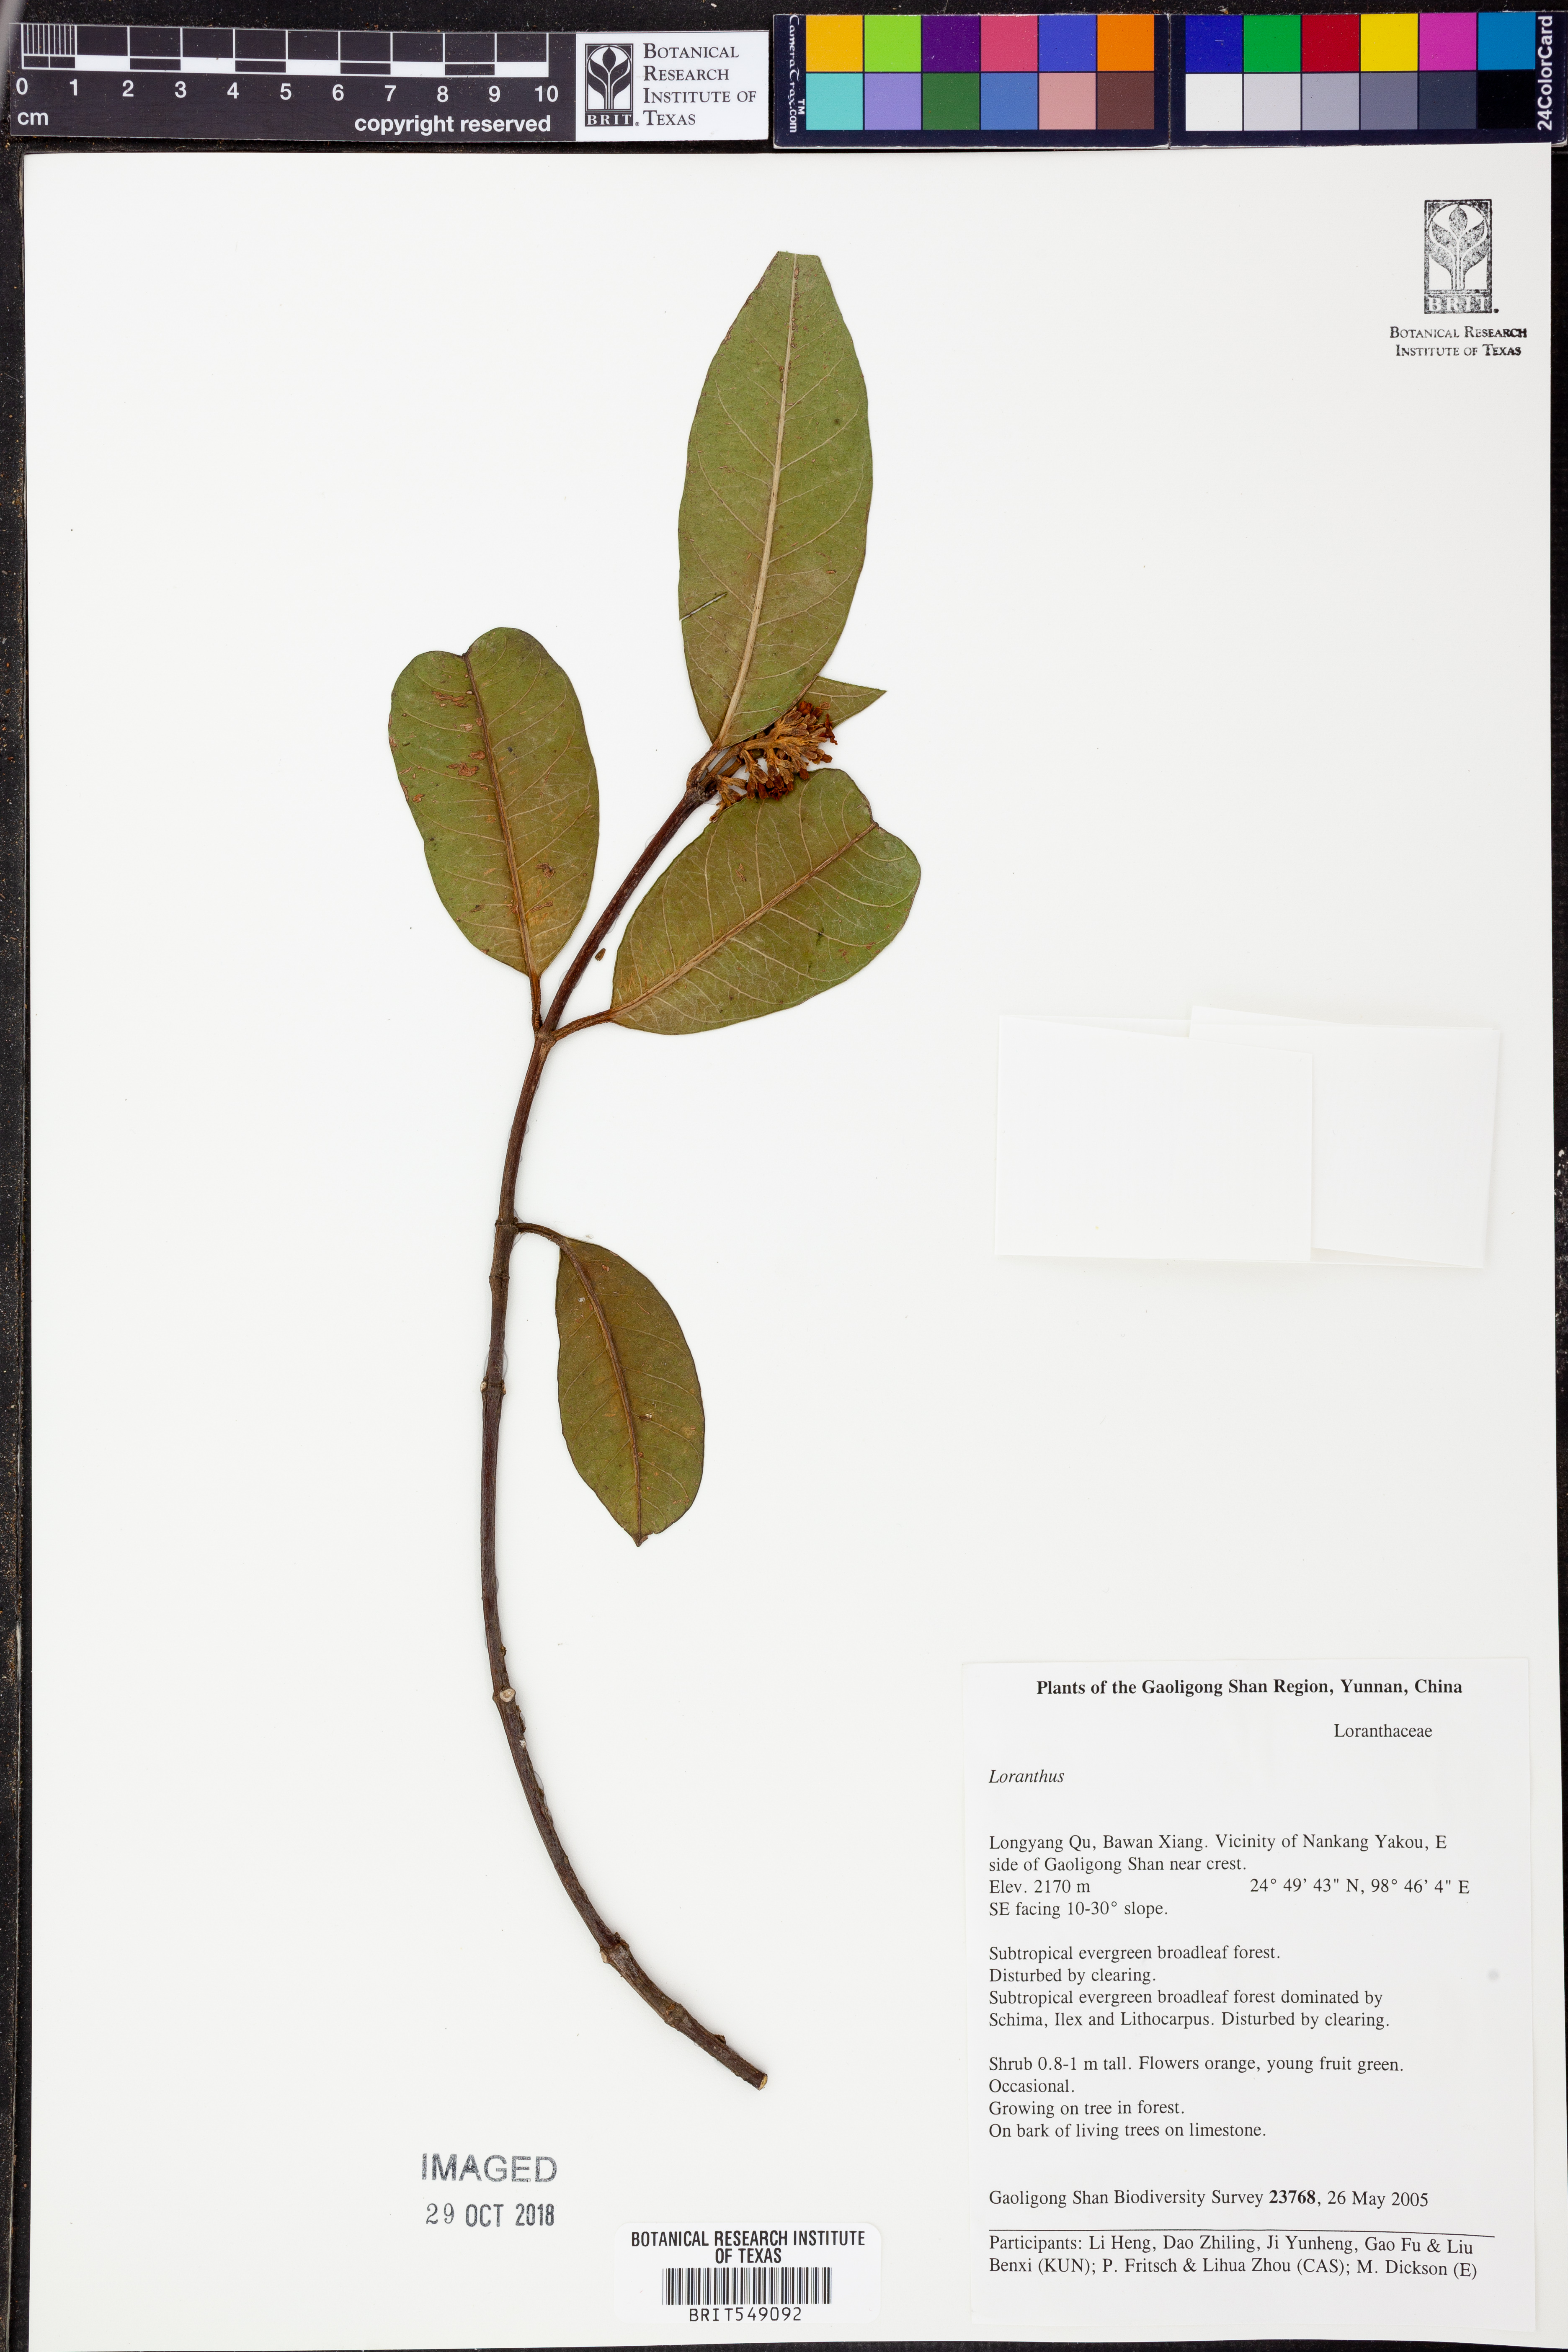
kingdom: Plantae
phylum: Tracheophyta
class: Magnoliopsida
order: Santalales
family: Loranthaceae
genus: Loranthus
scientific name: Loranthus
